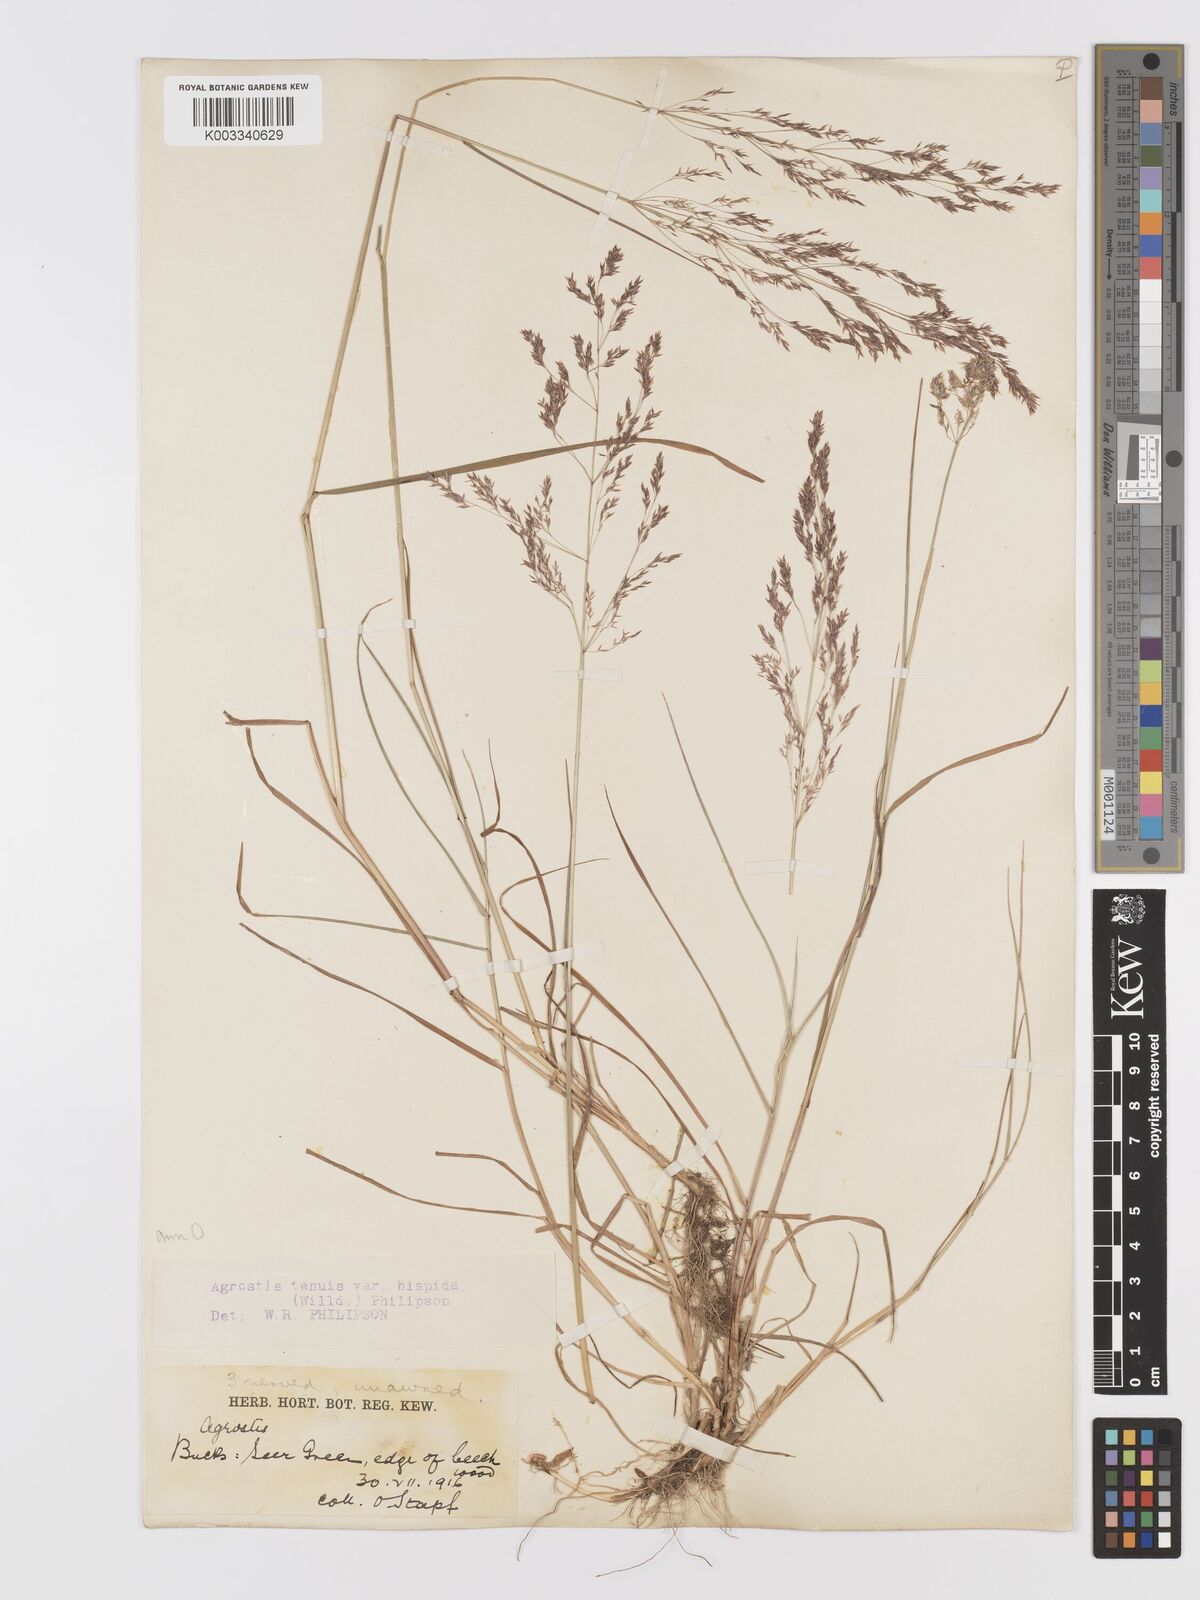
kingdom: Plantae
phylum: Tracheophyta
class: Liliopsida
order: Poales
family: Poaceae
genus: Agrostis
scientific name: Agrostis capillaris
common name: Colonial bentgrass
